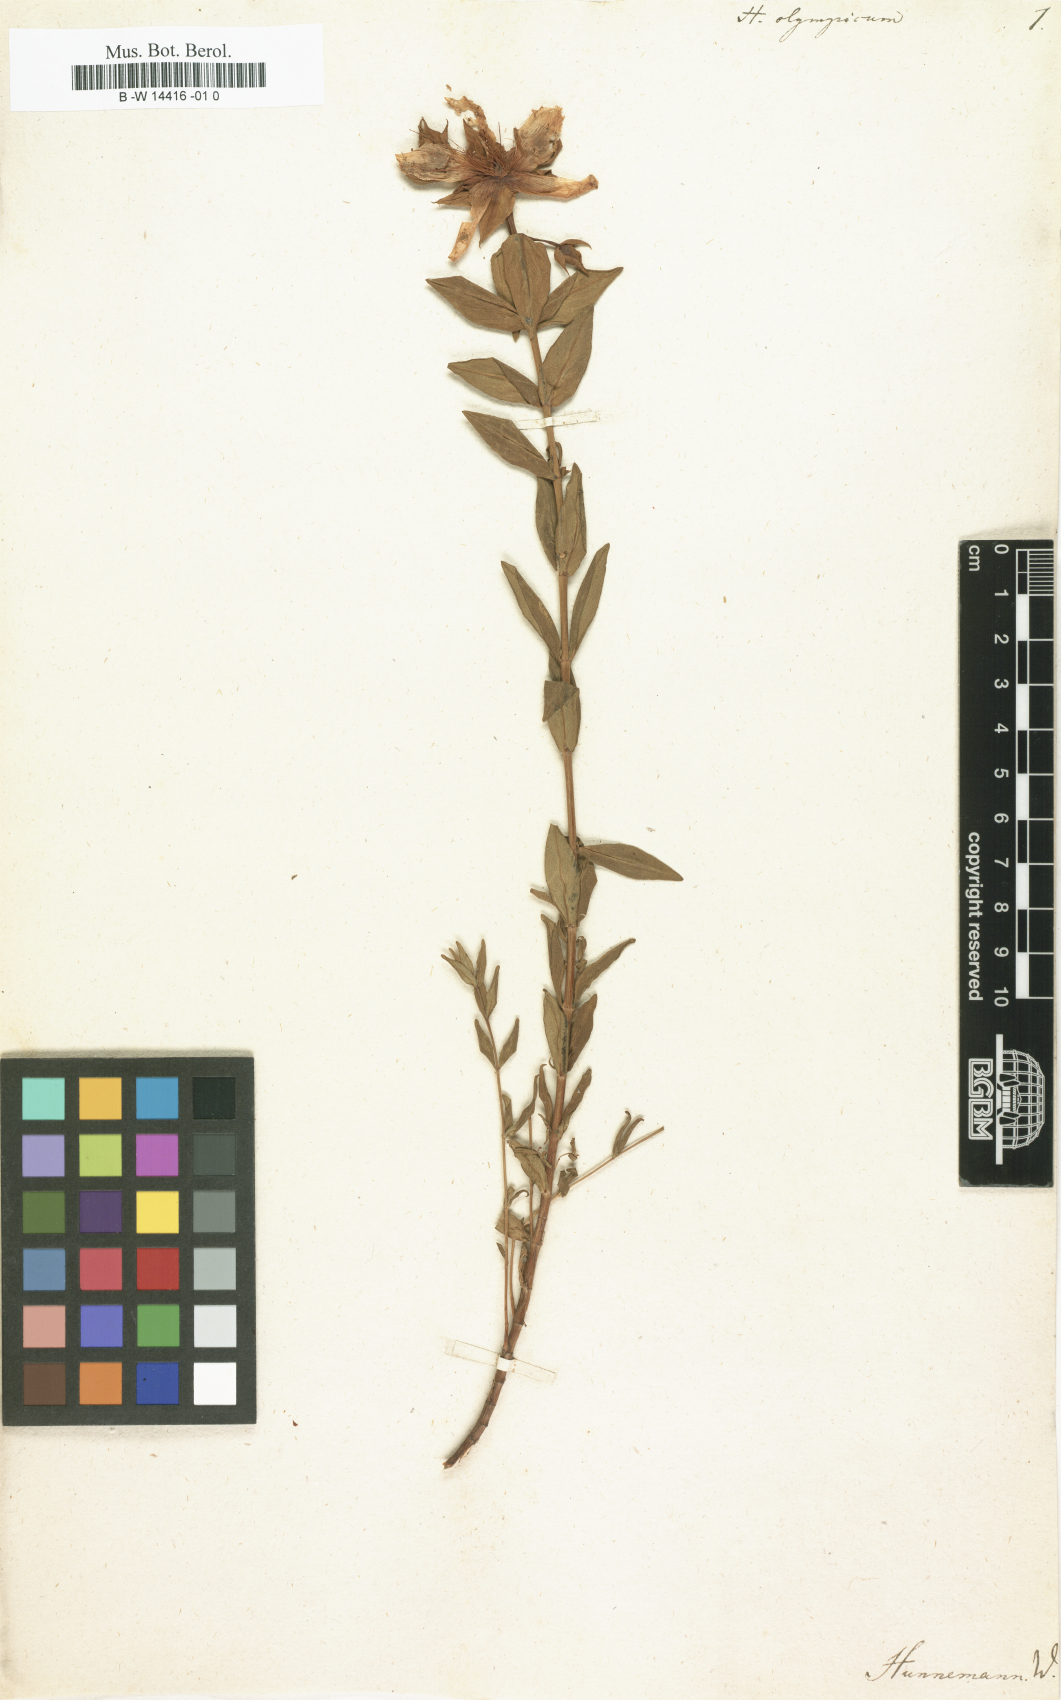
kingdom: Plantae
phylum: Tracheophyta
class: Magnoliopsida
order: Malpighiales
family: Hypericaceae
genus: Hypericum
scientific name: Hypericum olympicum
